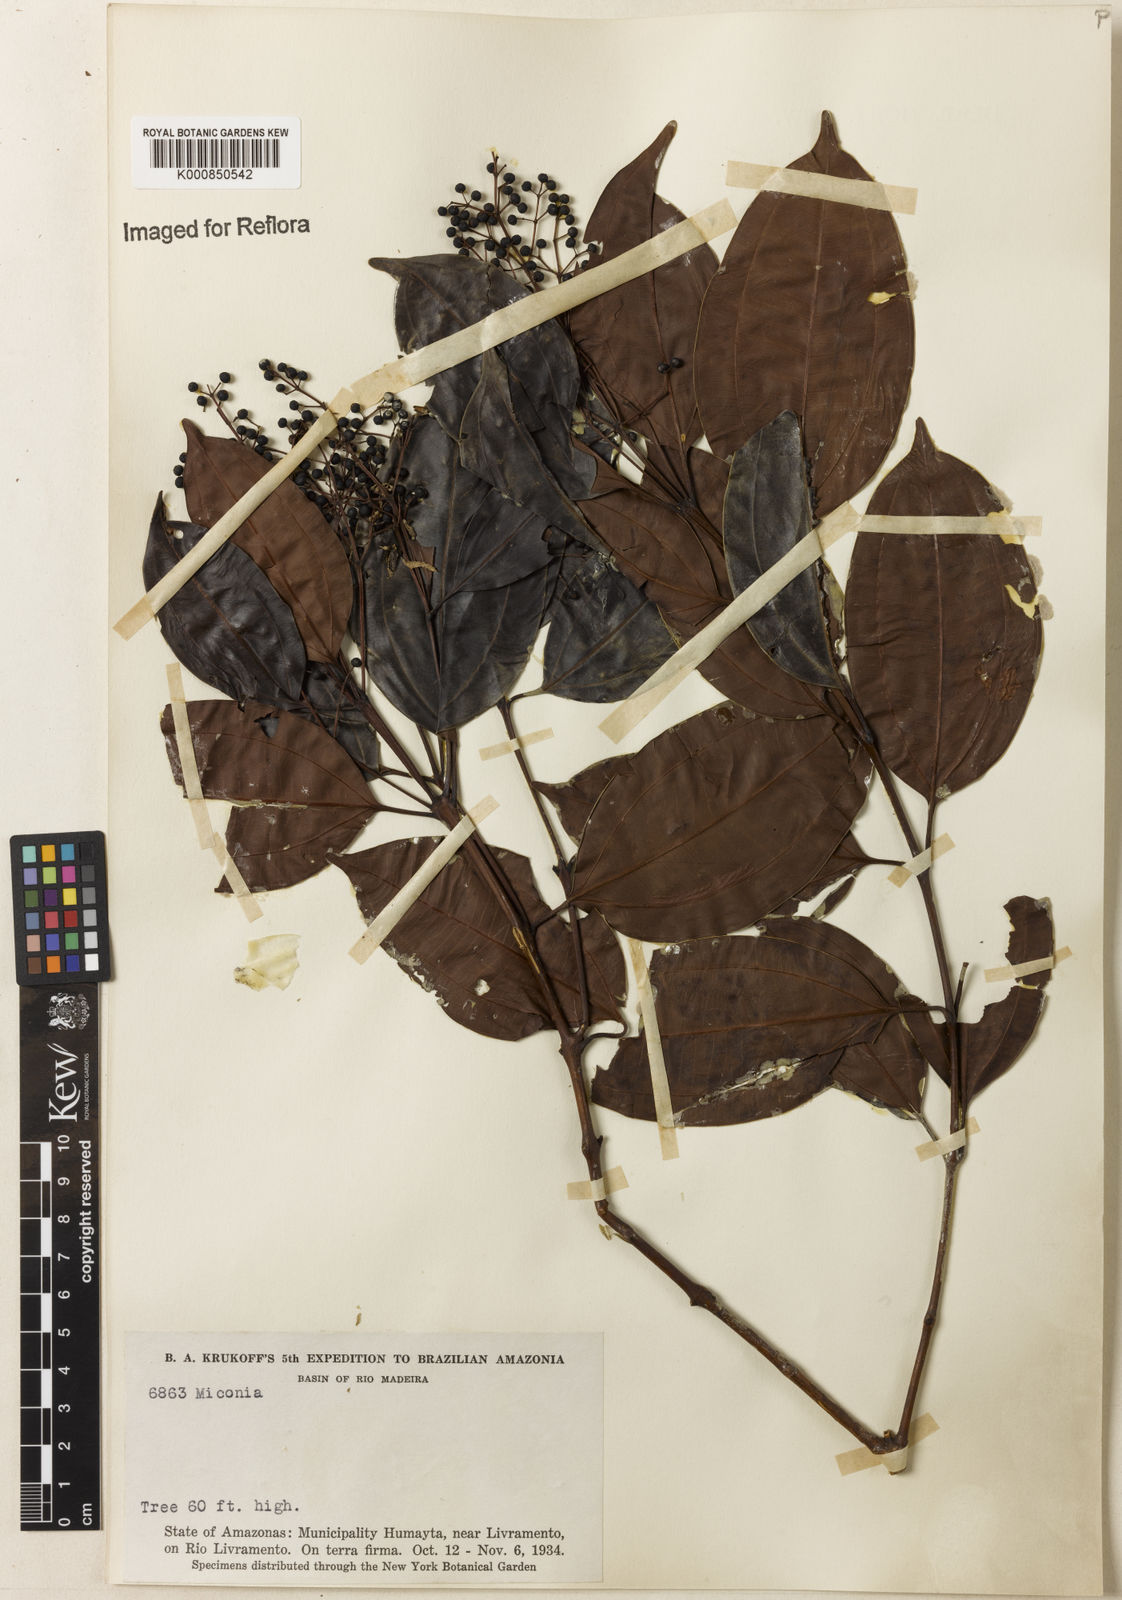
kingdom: Plantae
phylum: Tracheophyta
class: Magnoliopsida
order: Myrtales
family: Melastomataceae
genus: Miconia
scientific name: Miconia
